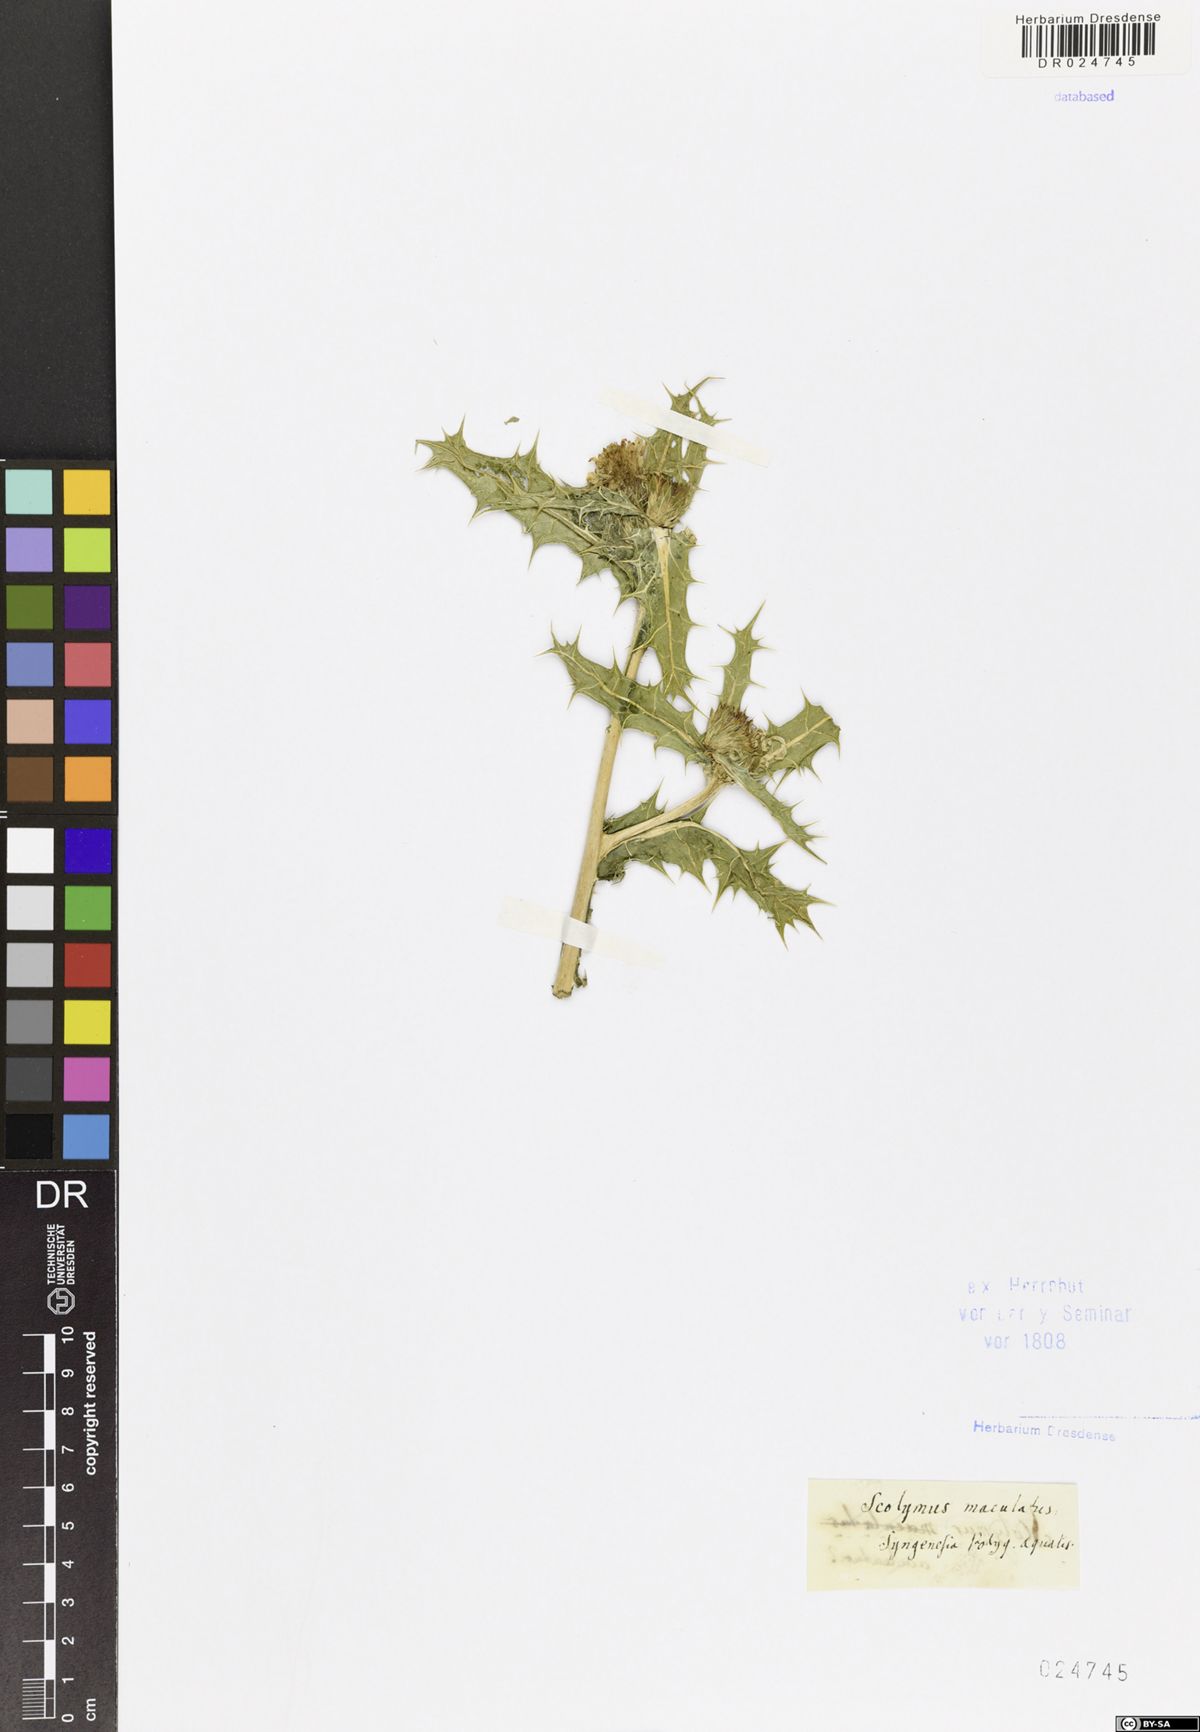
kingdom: Plantae
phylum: Tracheophyta
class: Magnoliopsida
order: Asterales
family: Asteraceae
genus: Scolymus
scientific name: Scolymus maculatus
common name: Spotted thistle
